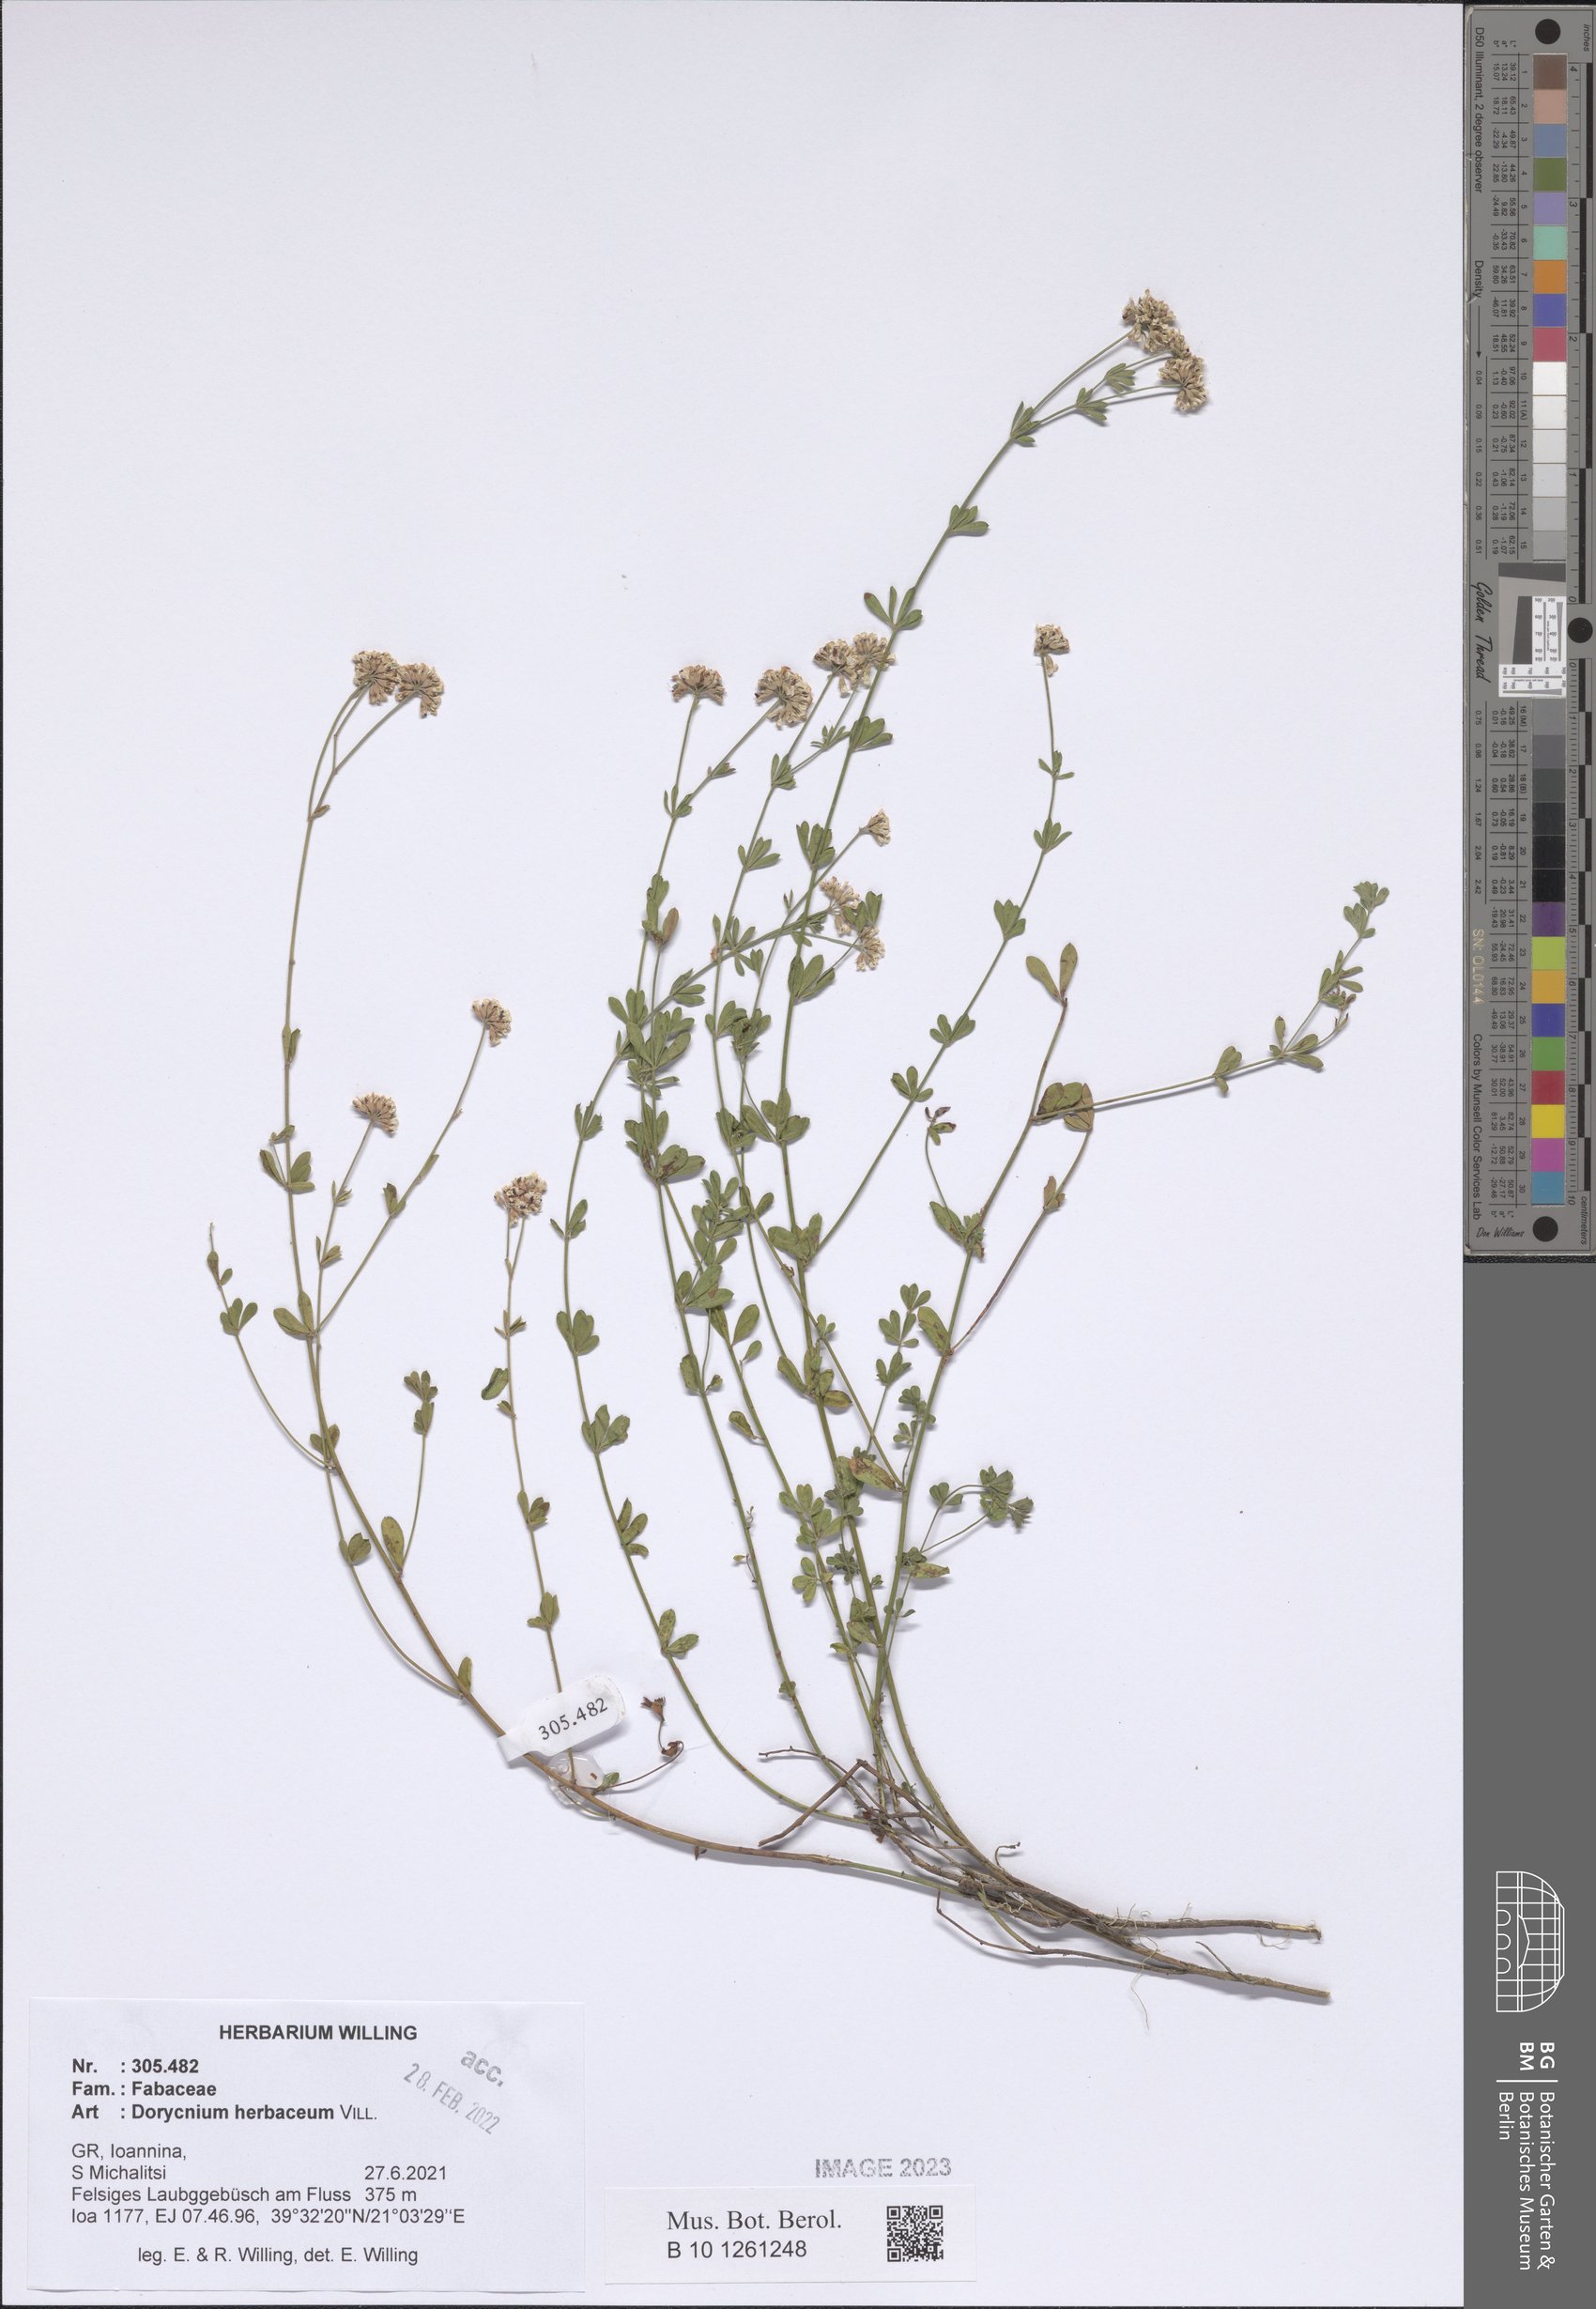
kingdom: Plantae
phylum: Tracheophyta
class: Magnoliopsida
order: Fabales
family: Fabaceae
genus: Lotus
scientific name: Lotus herbaceus
